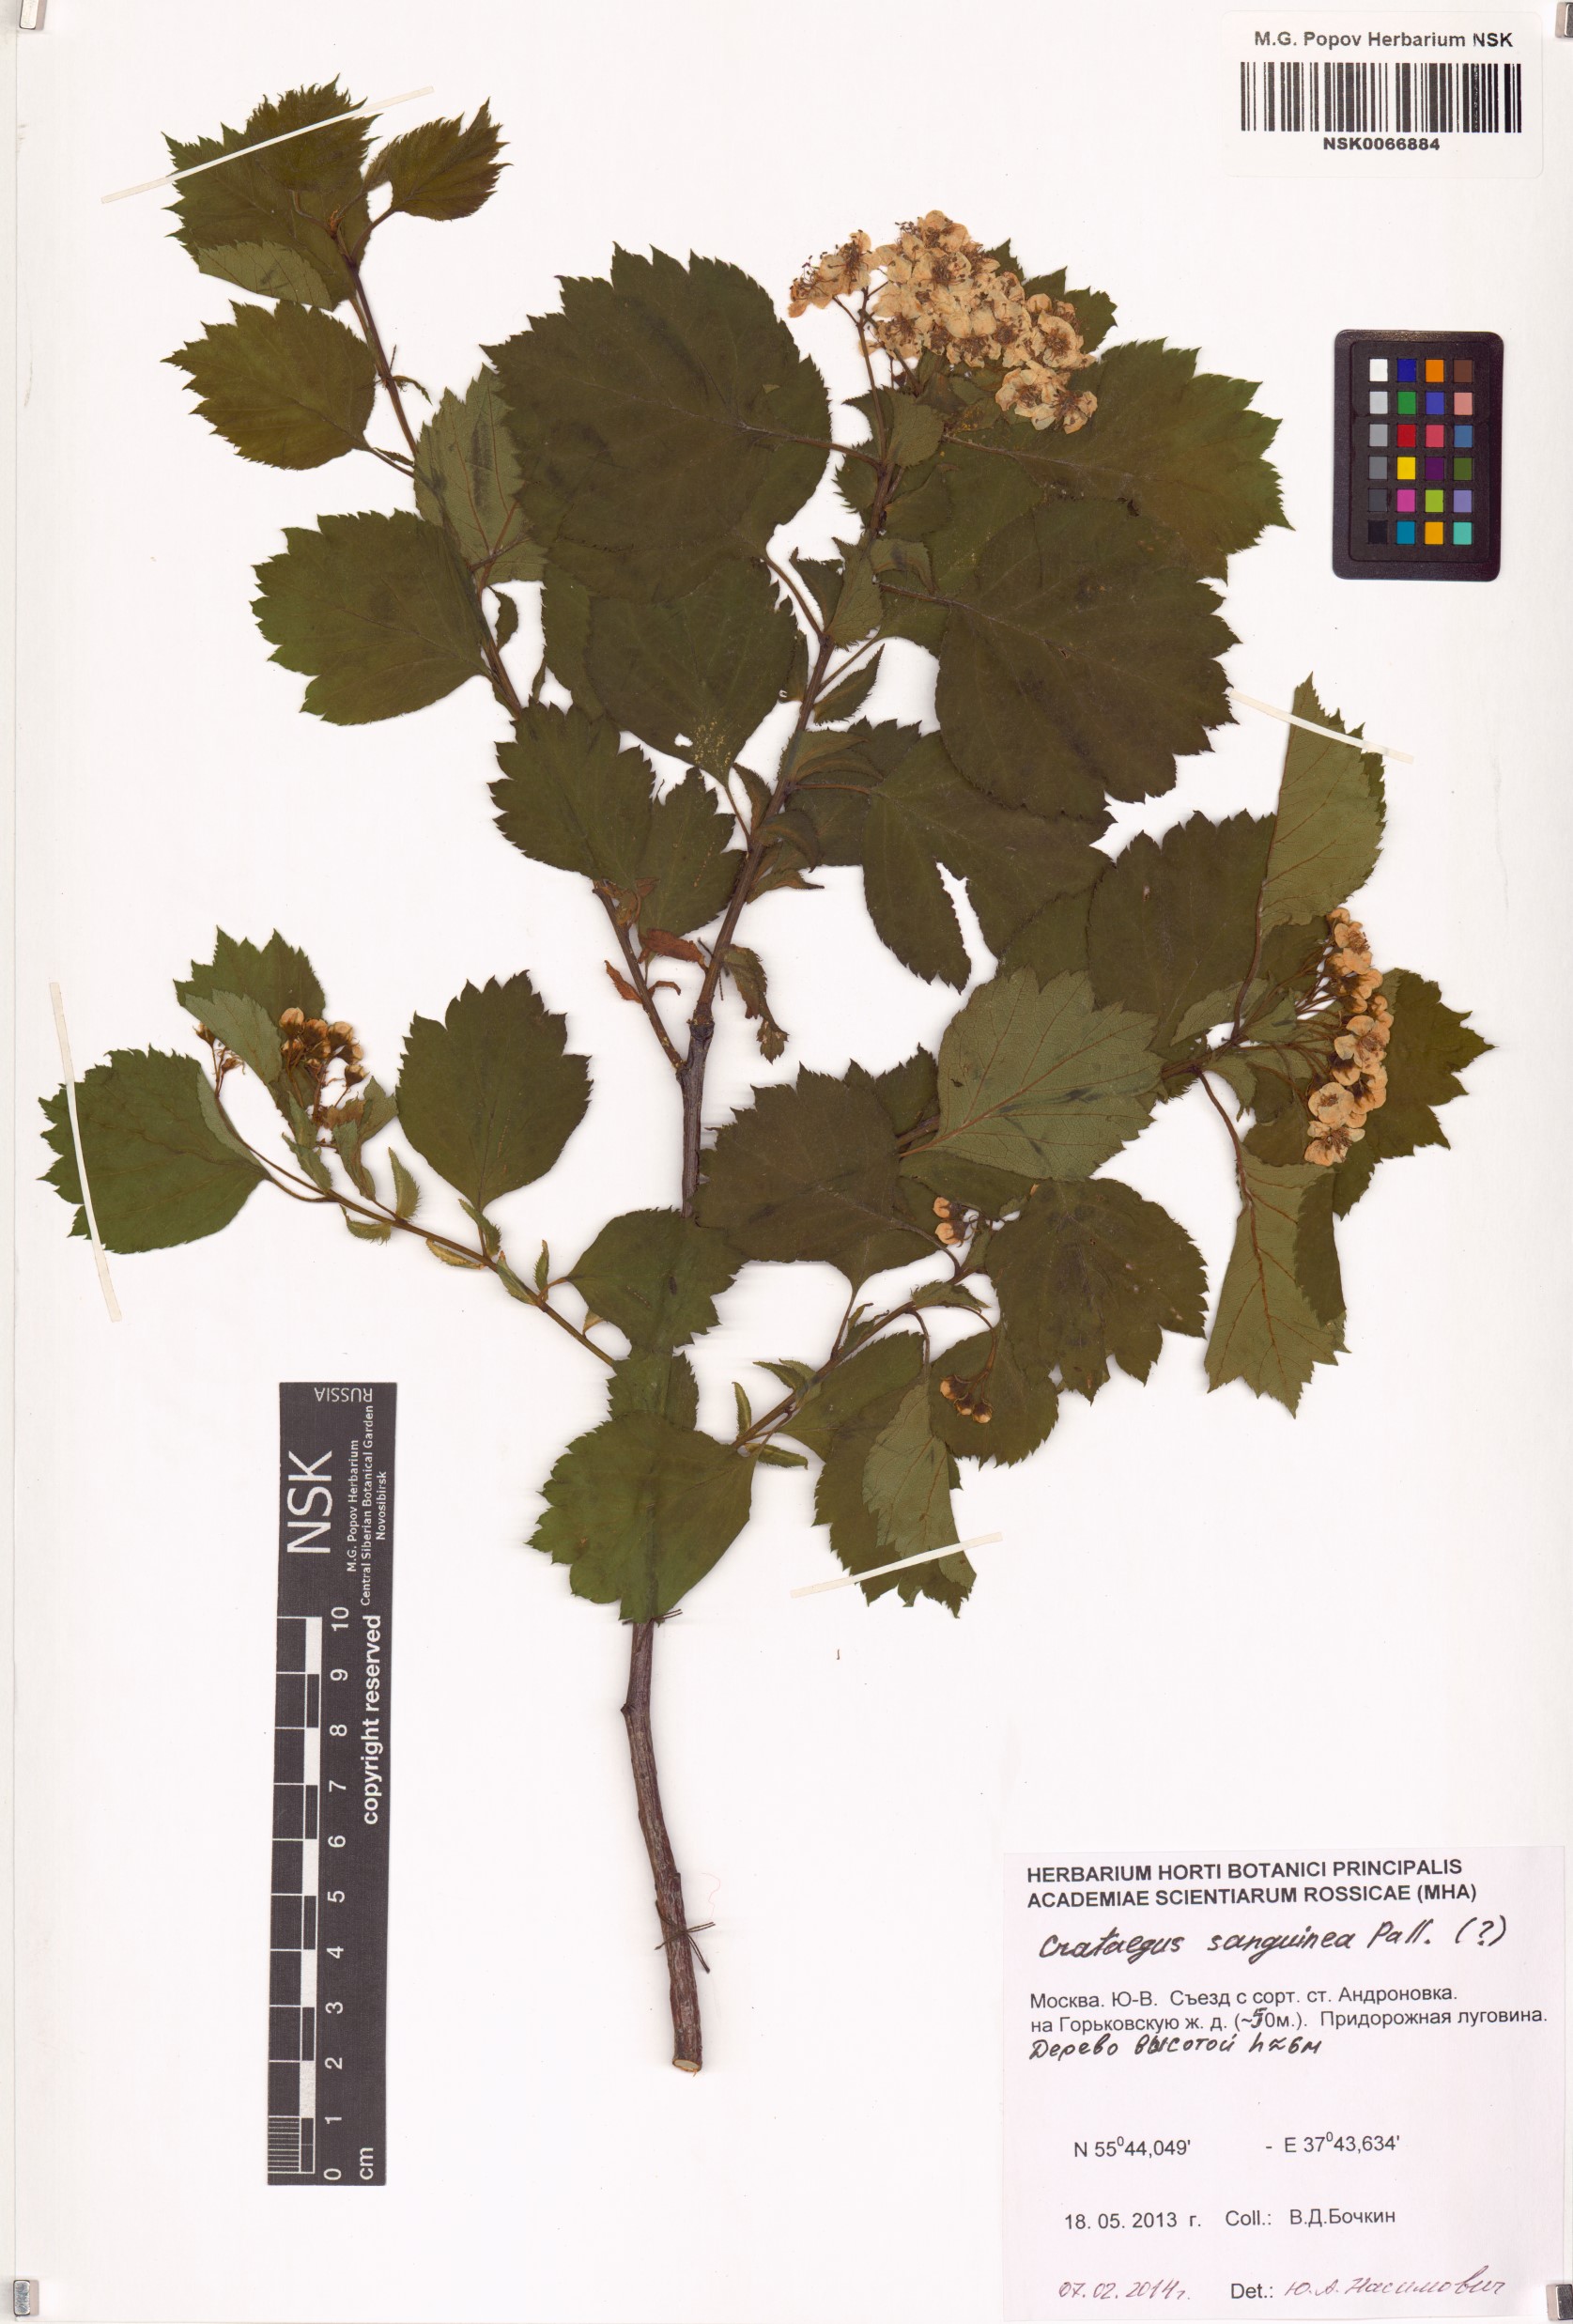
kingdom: Plantae
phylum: Tracheophyta
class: Magnoliopsida
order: Rosales
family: Rosaceae
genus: Crataegus
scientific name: Crataegus sanguinea
